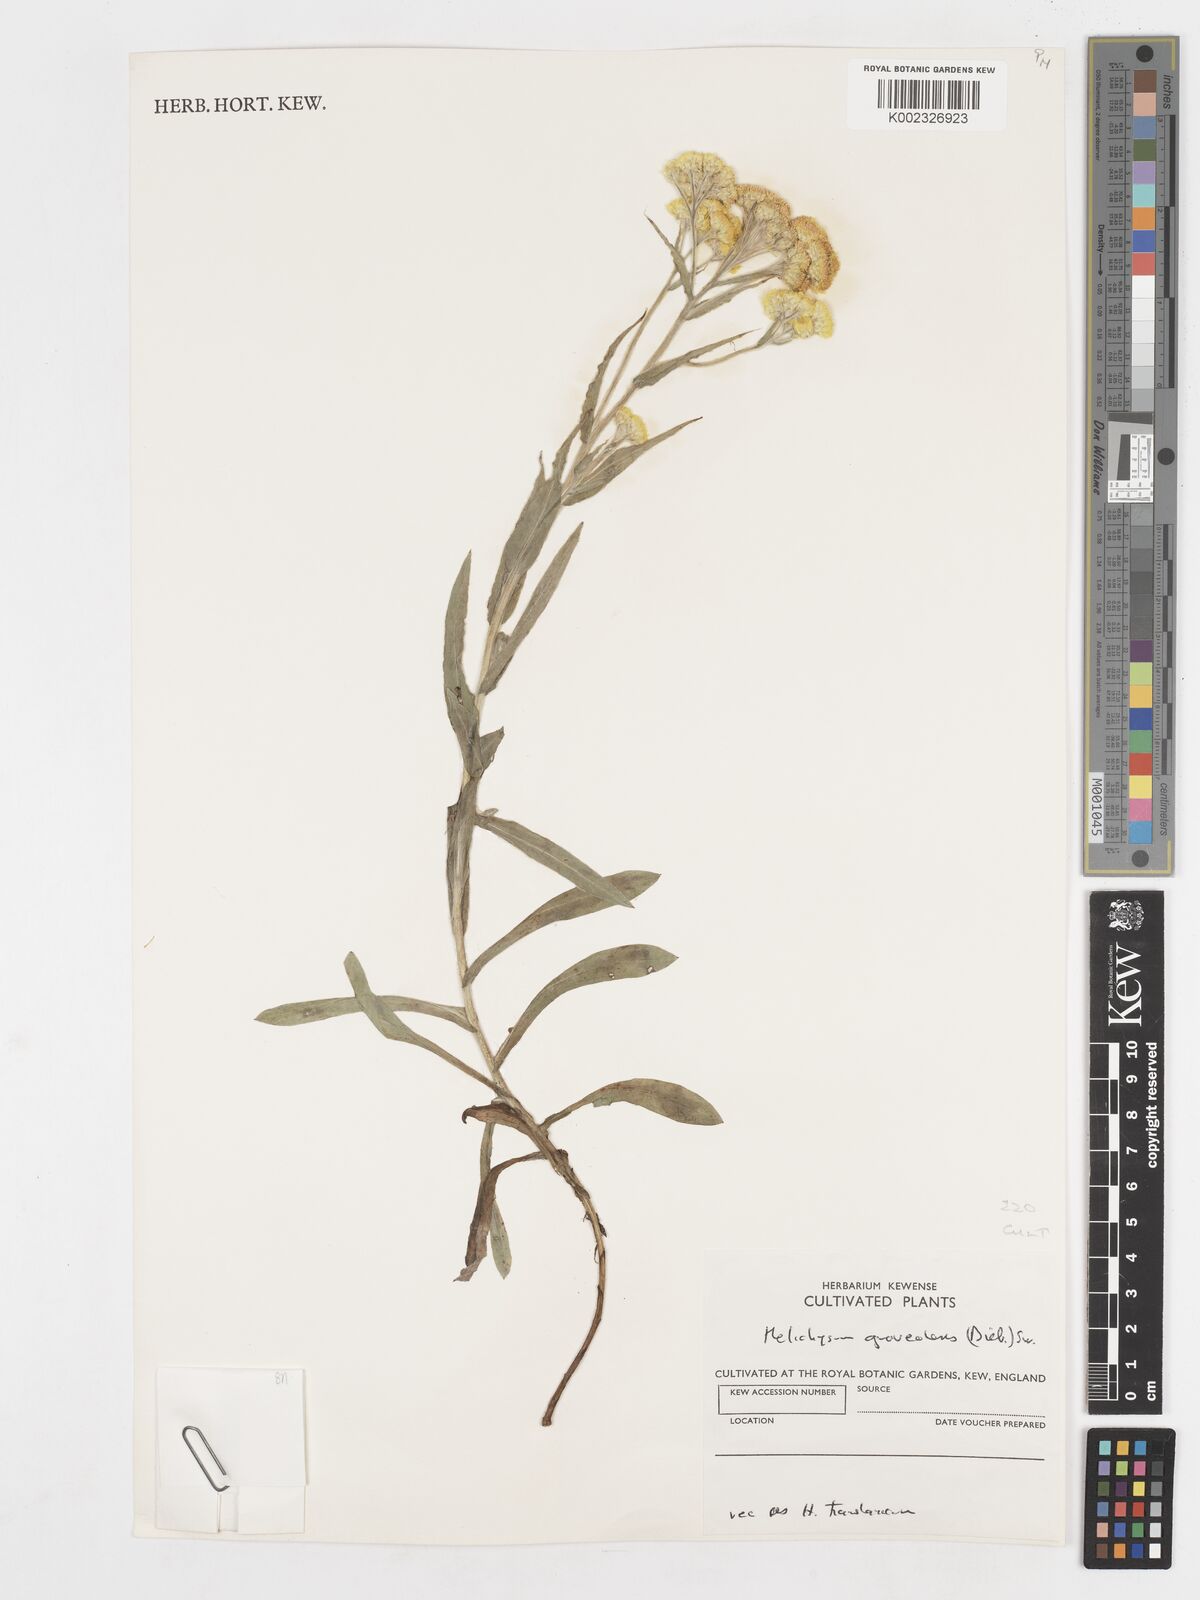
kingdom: Plantae
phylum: Tracheophyta
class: Magnoliopsida
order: Asterales
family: Asteraceae
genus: Helichrysum
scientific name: Helichrysum graveolens
